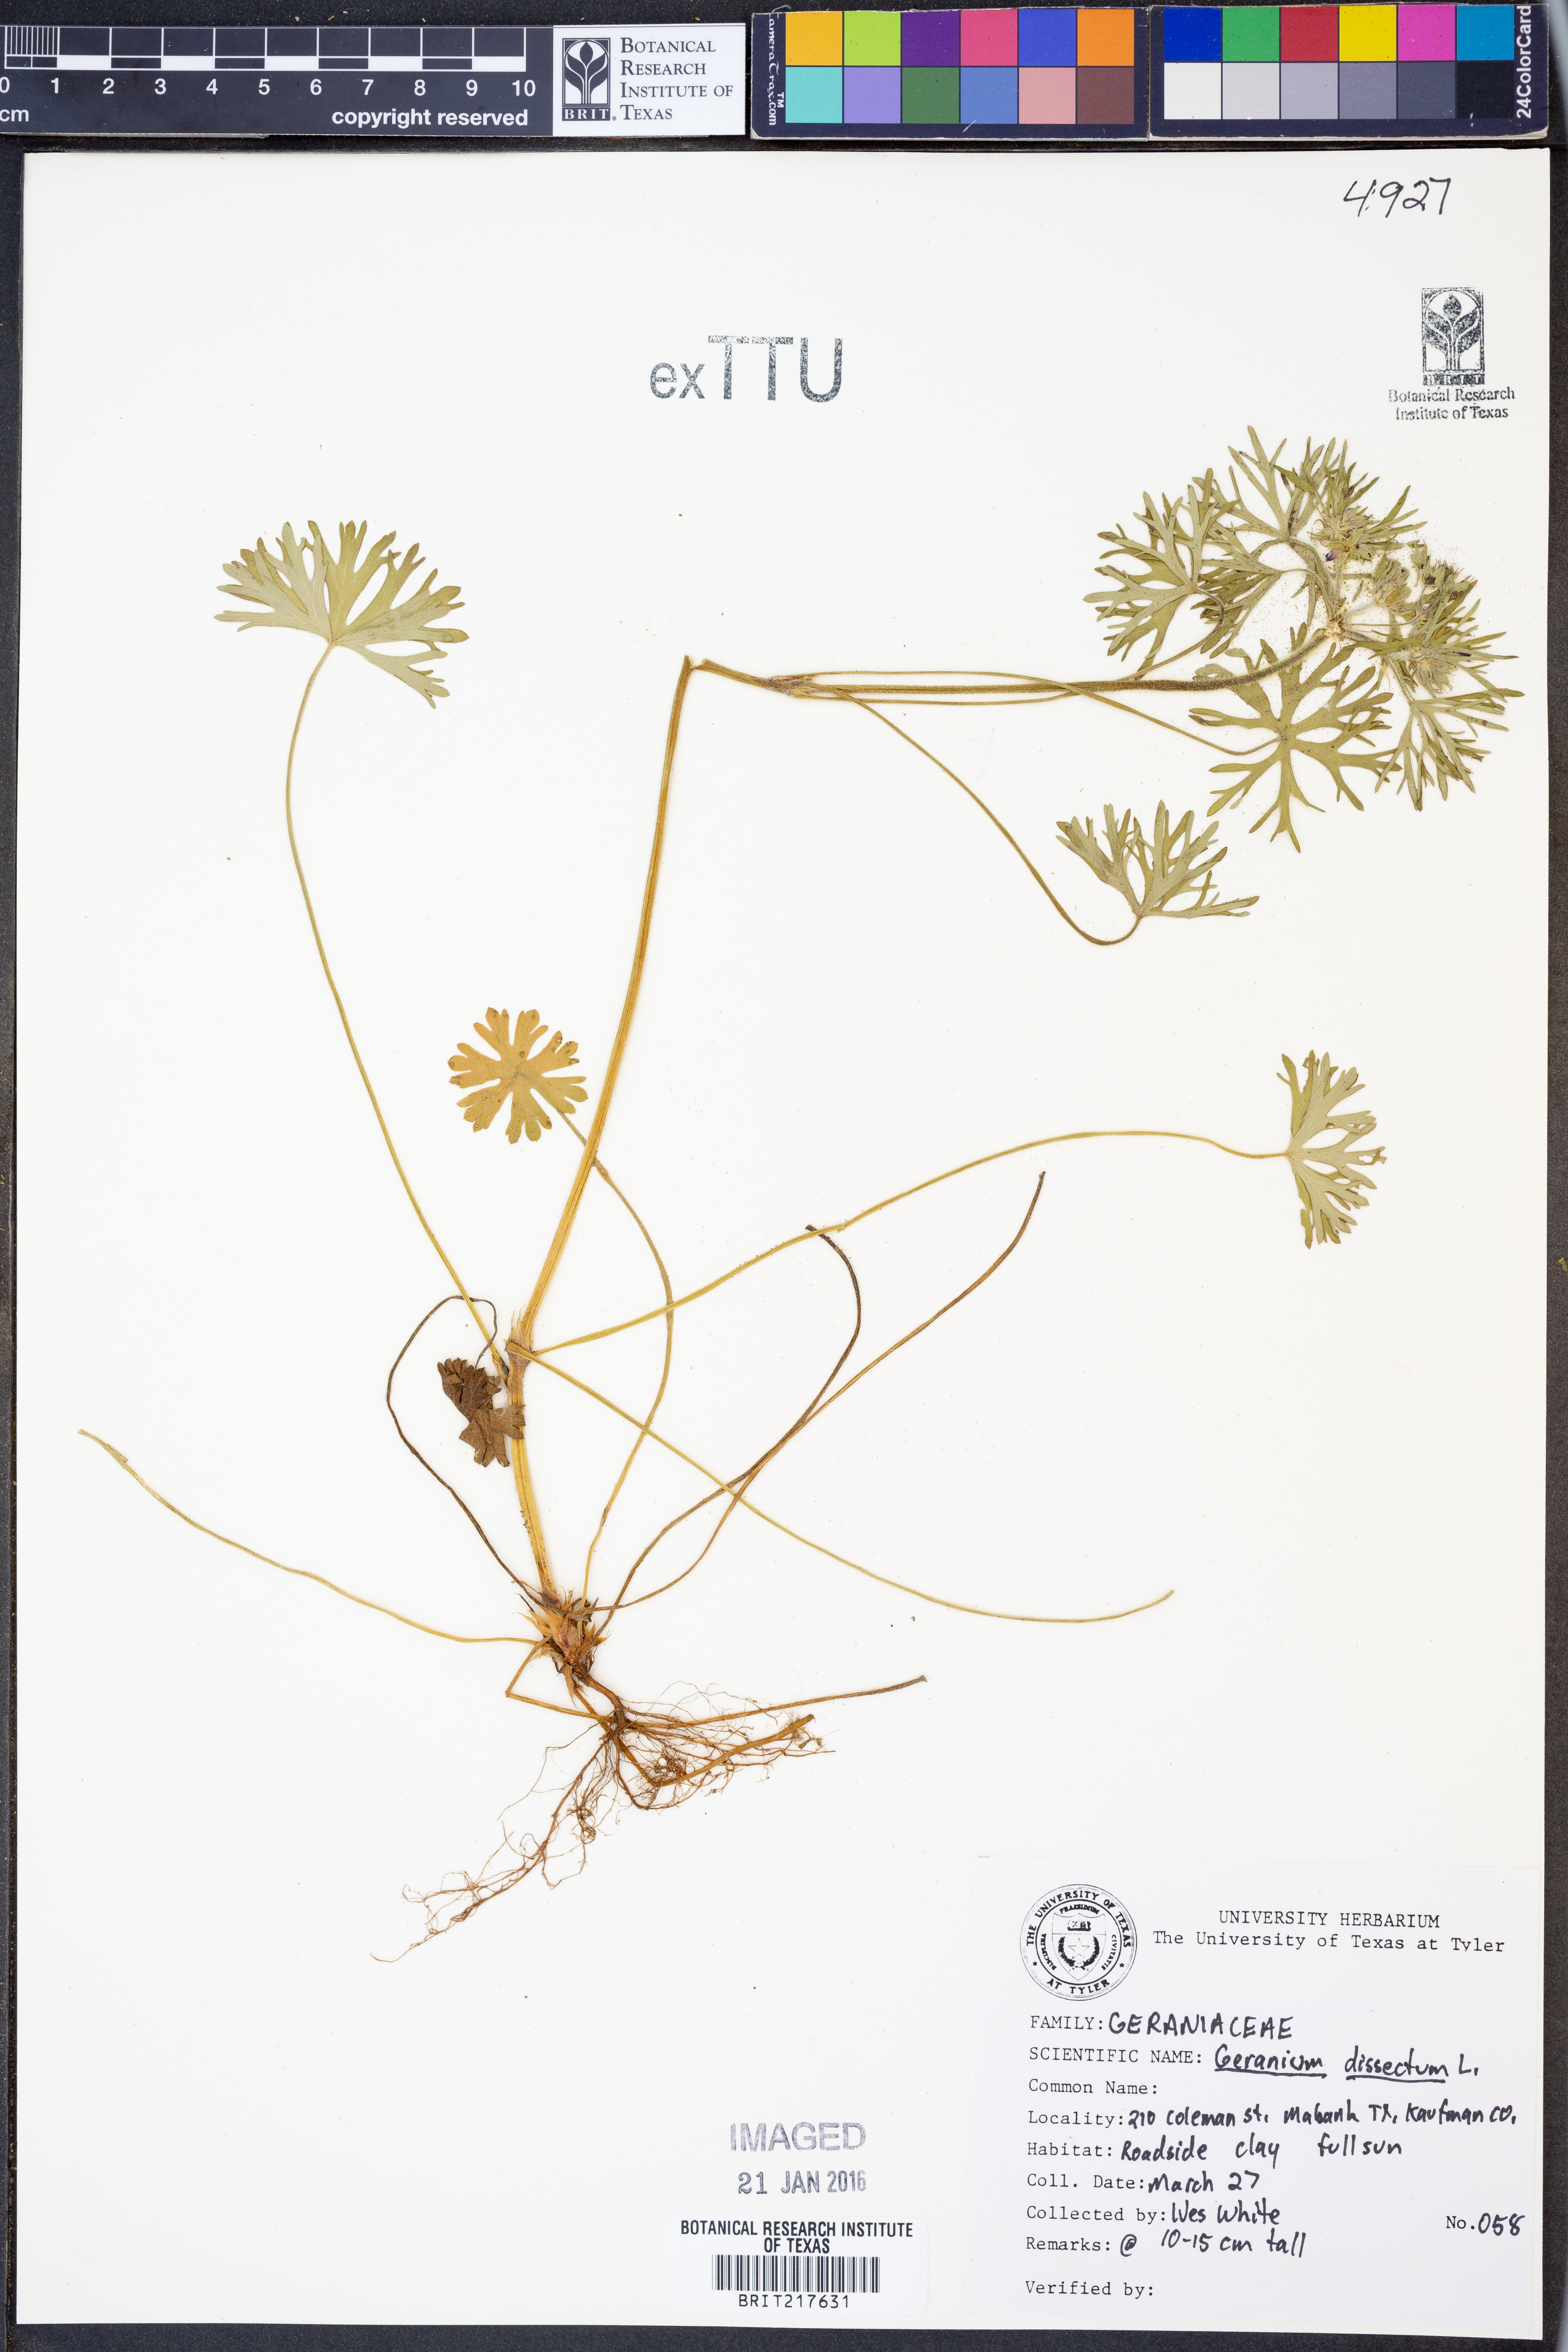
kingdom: Plantae
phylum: Tracheophyta
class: Magnoliopsida
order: Geraniales
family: Geraniaceae
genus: Geranium
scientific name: Geranium dissectum
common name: Cut-leaved crane's-bill
